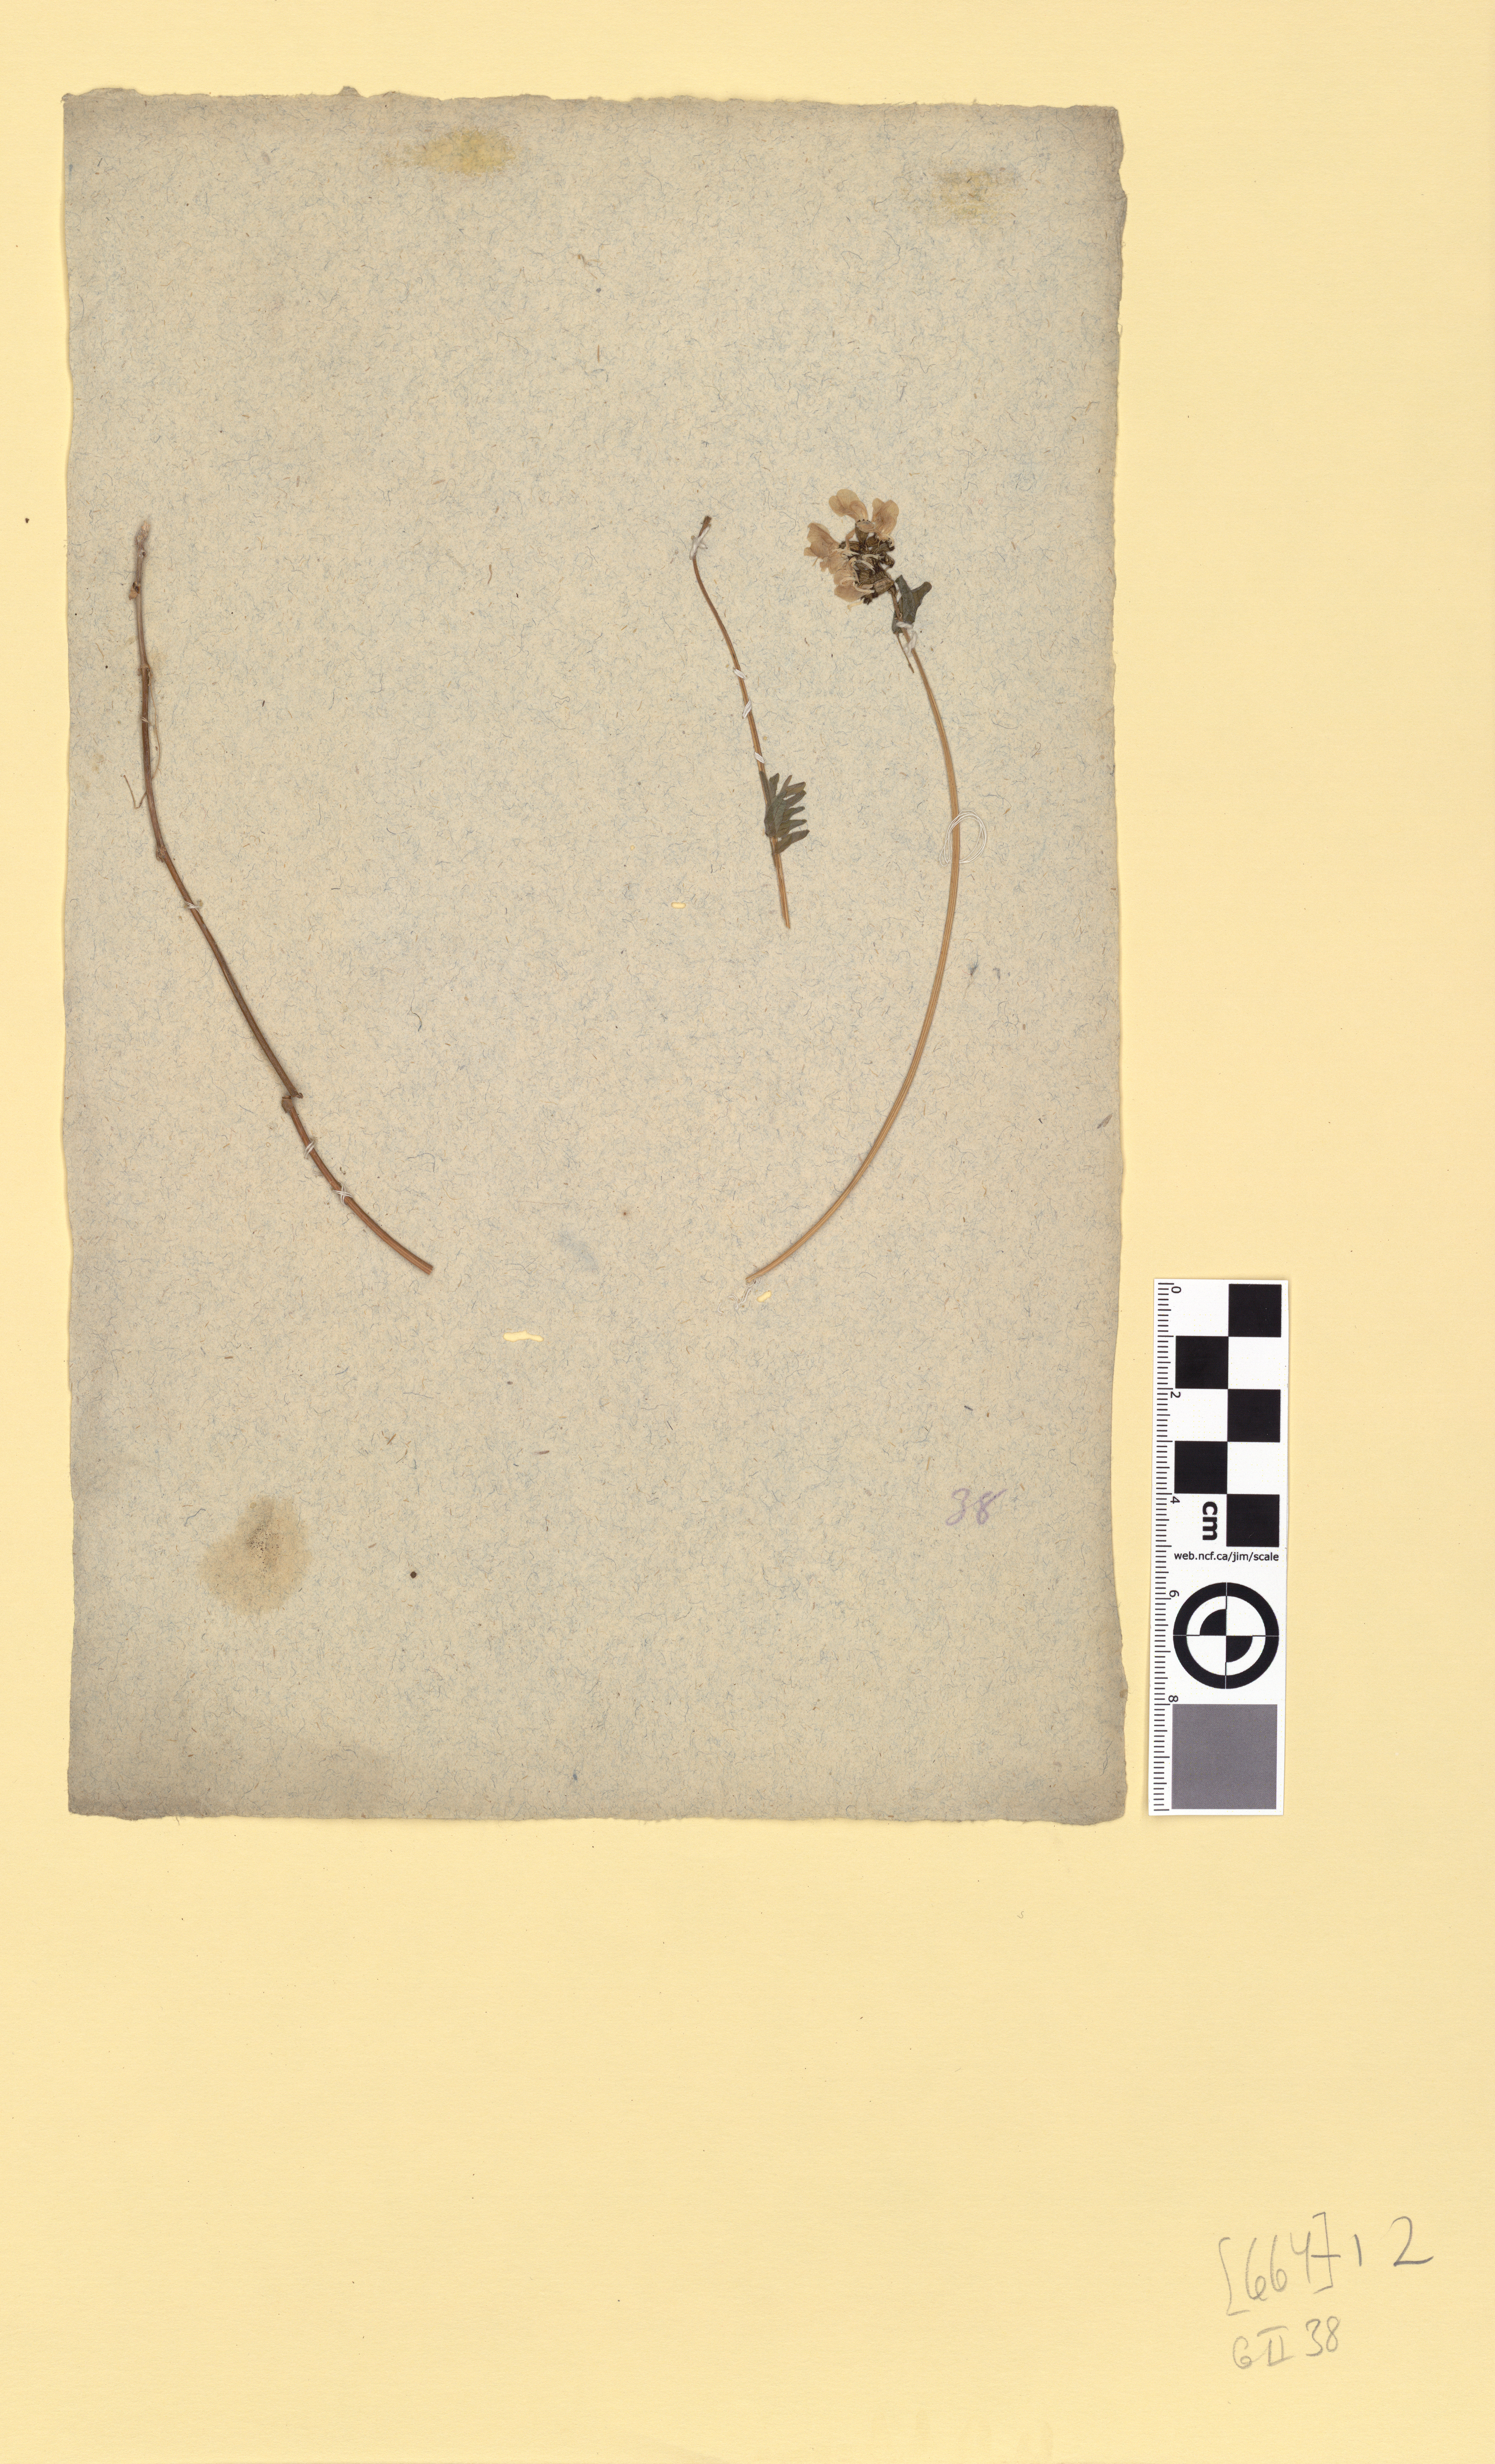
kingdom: Plantae
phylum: Tracheophyta
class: Magnoliopsida
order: Fabales
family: Fabaceae
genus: Astragalus
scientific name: Astragalus alpinus
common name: Alpine milk-vetch
